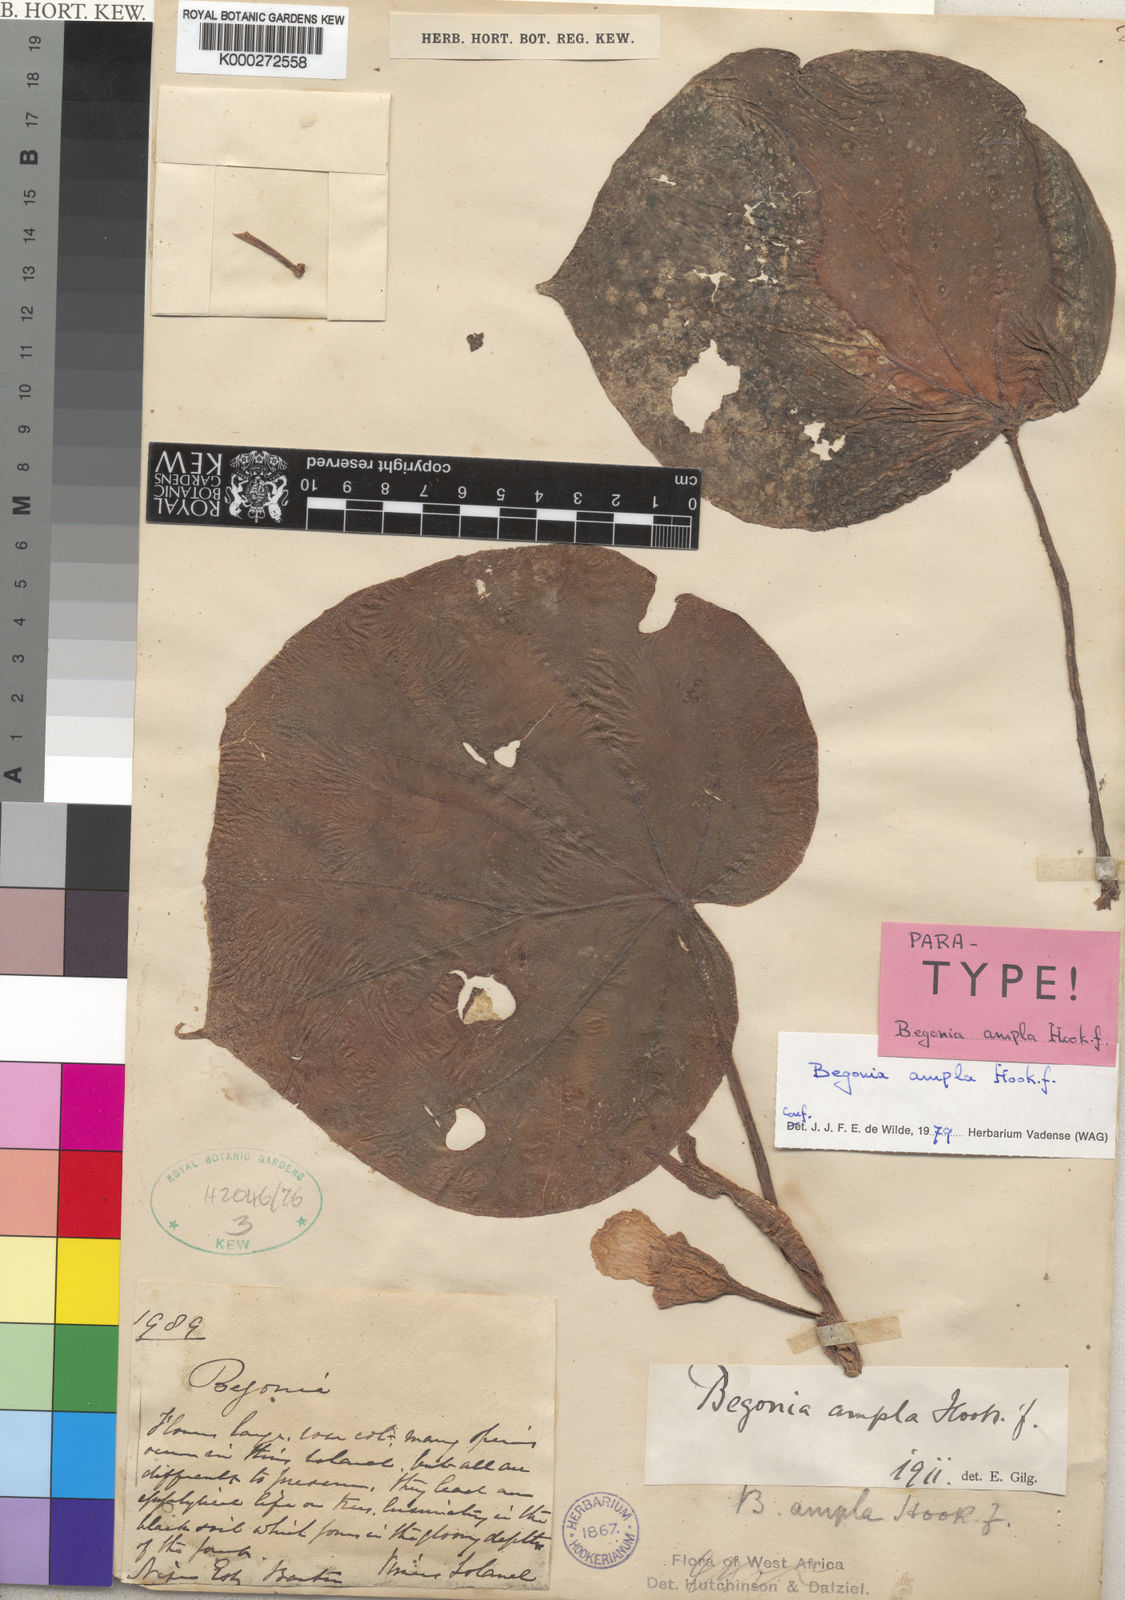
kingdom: Plantae
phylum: Tracheophyta
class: Magnoliopsida
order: Cucurbitales
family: Begoniaceae
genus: Begonia
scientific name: Begonia ampla
